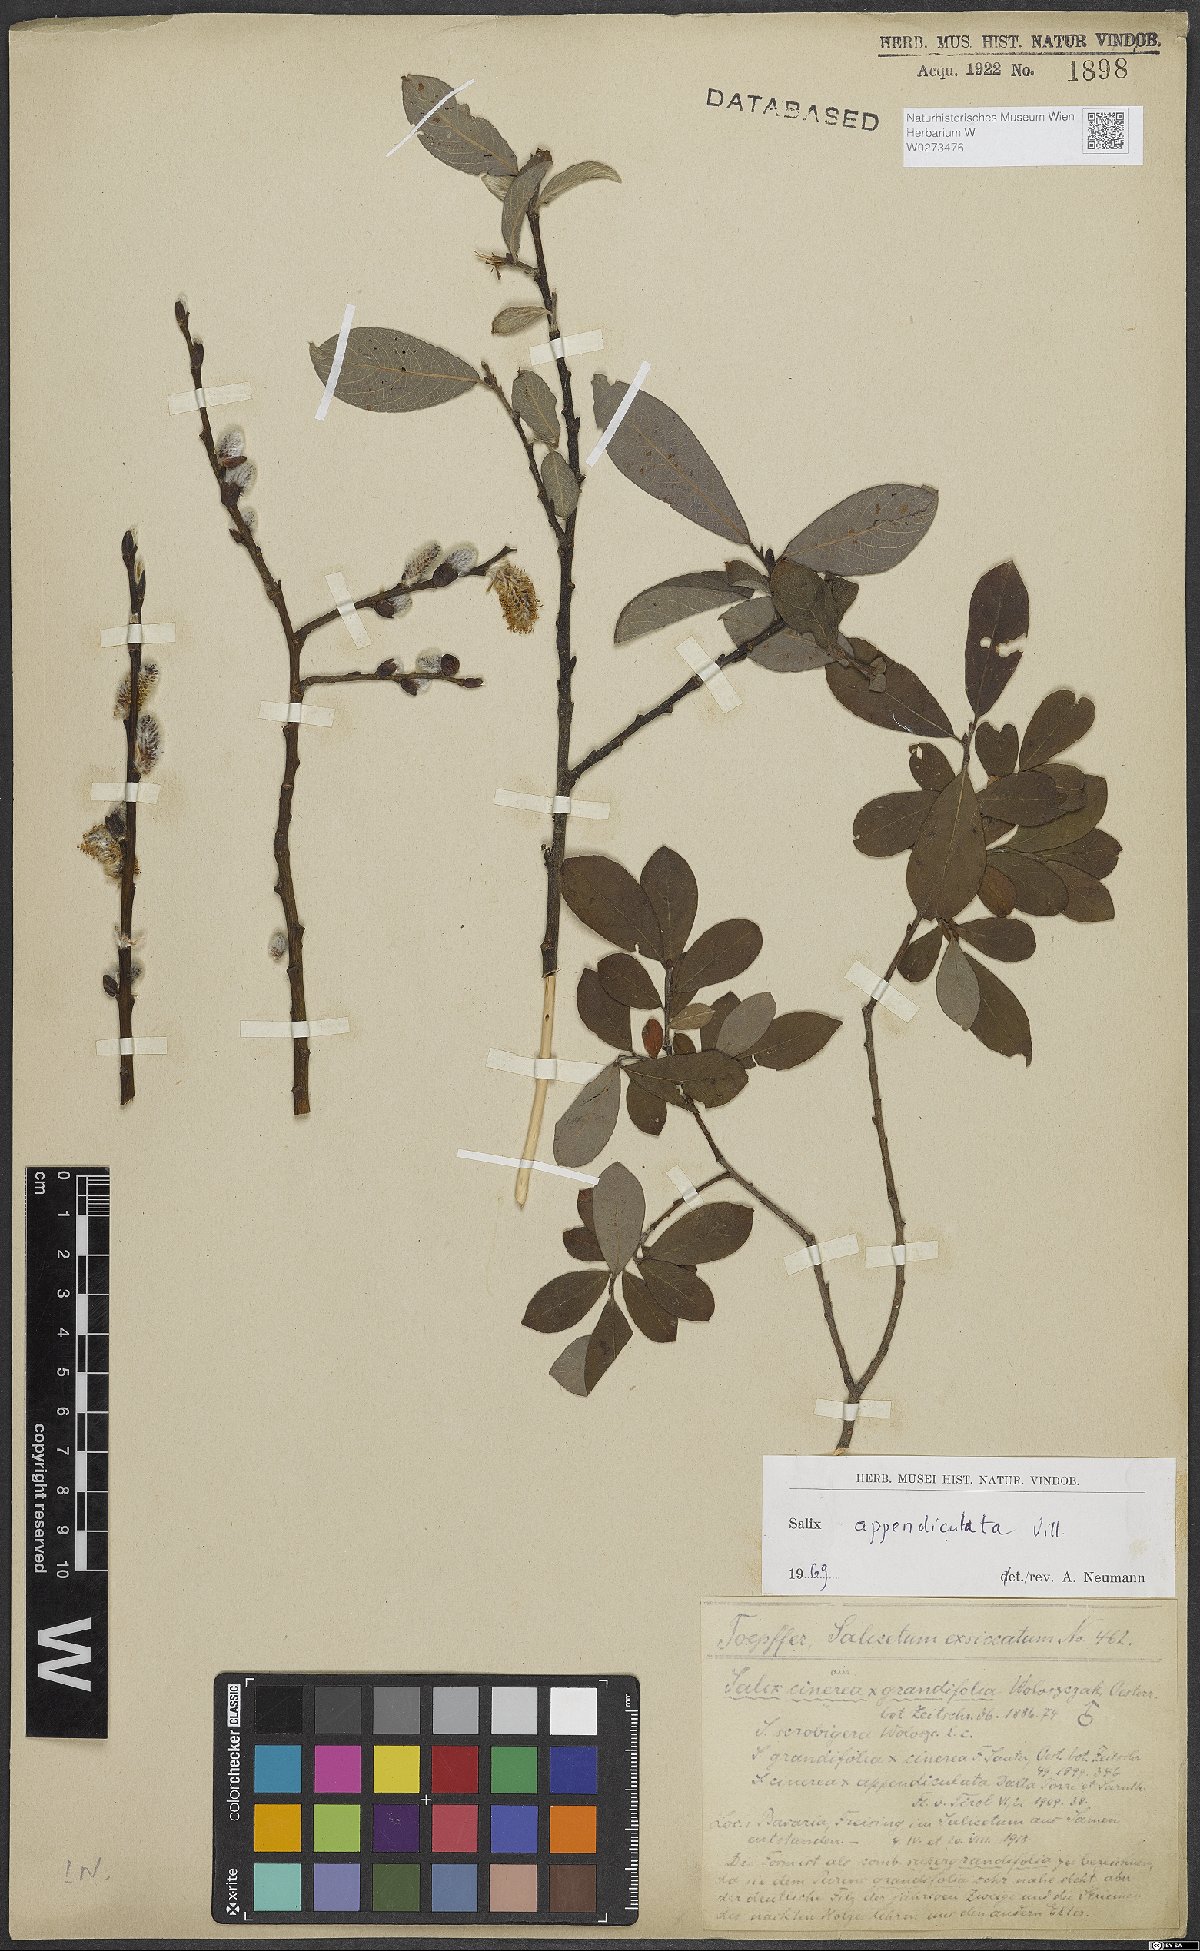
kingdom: Plantae
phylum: Tracheophyta
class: Magnoliopsida
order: Malpighiales
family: Salicaceae
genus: Salix
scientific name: Salix appendiculata
